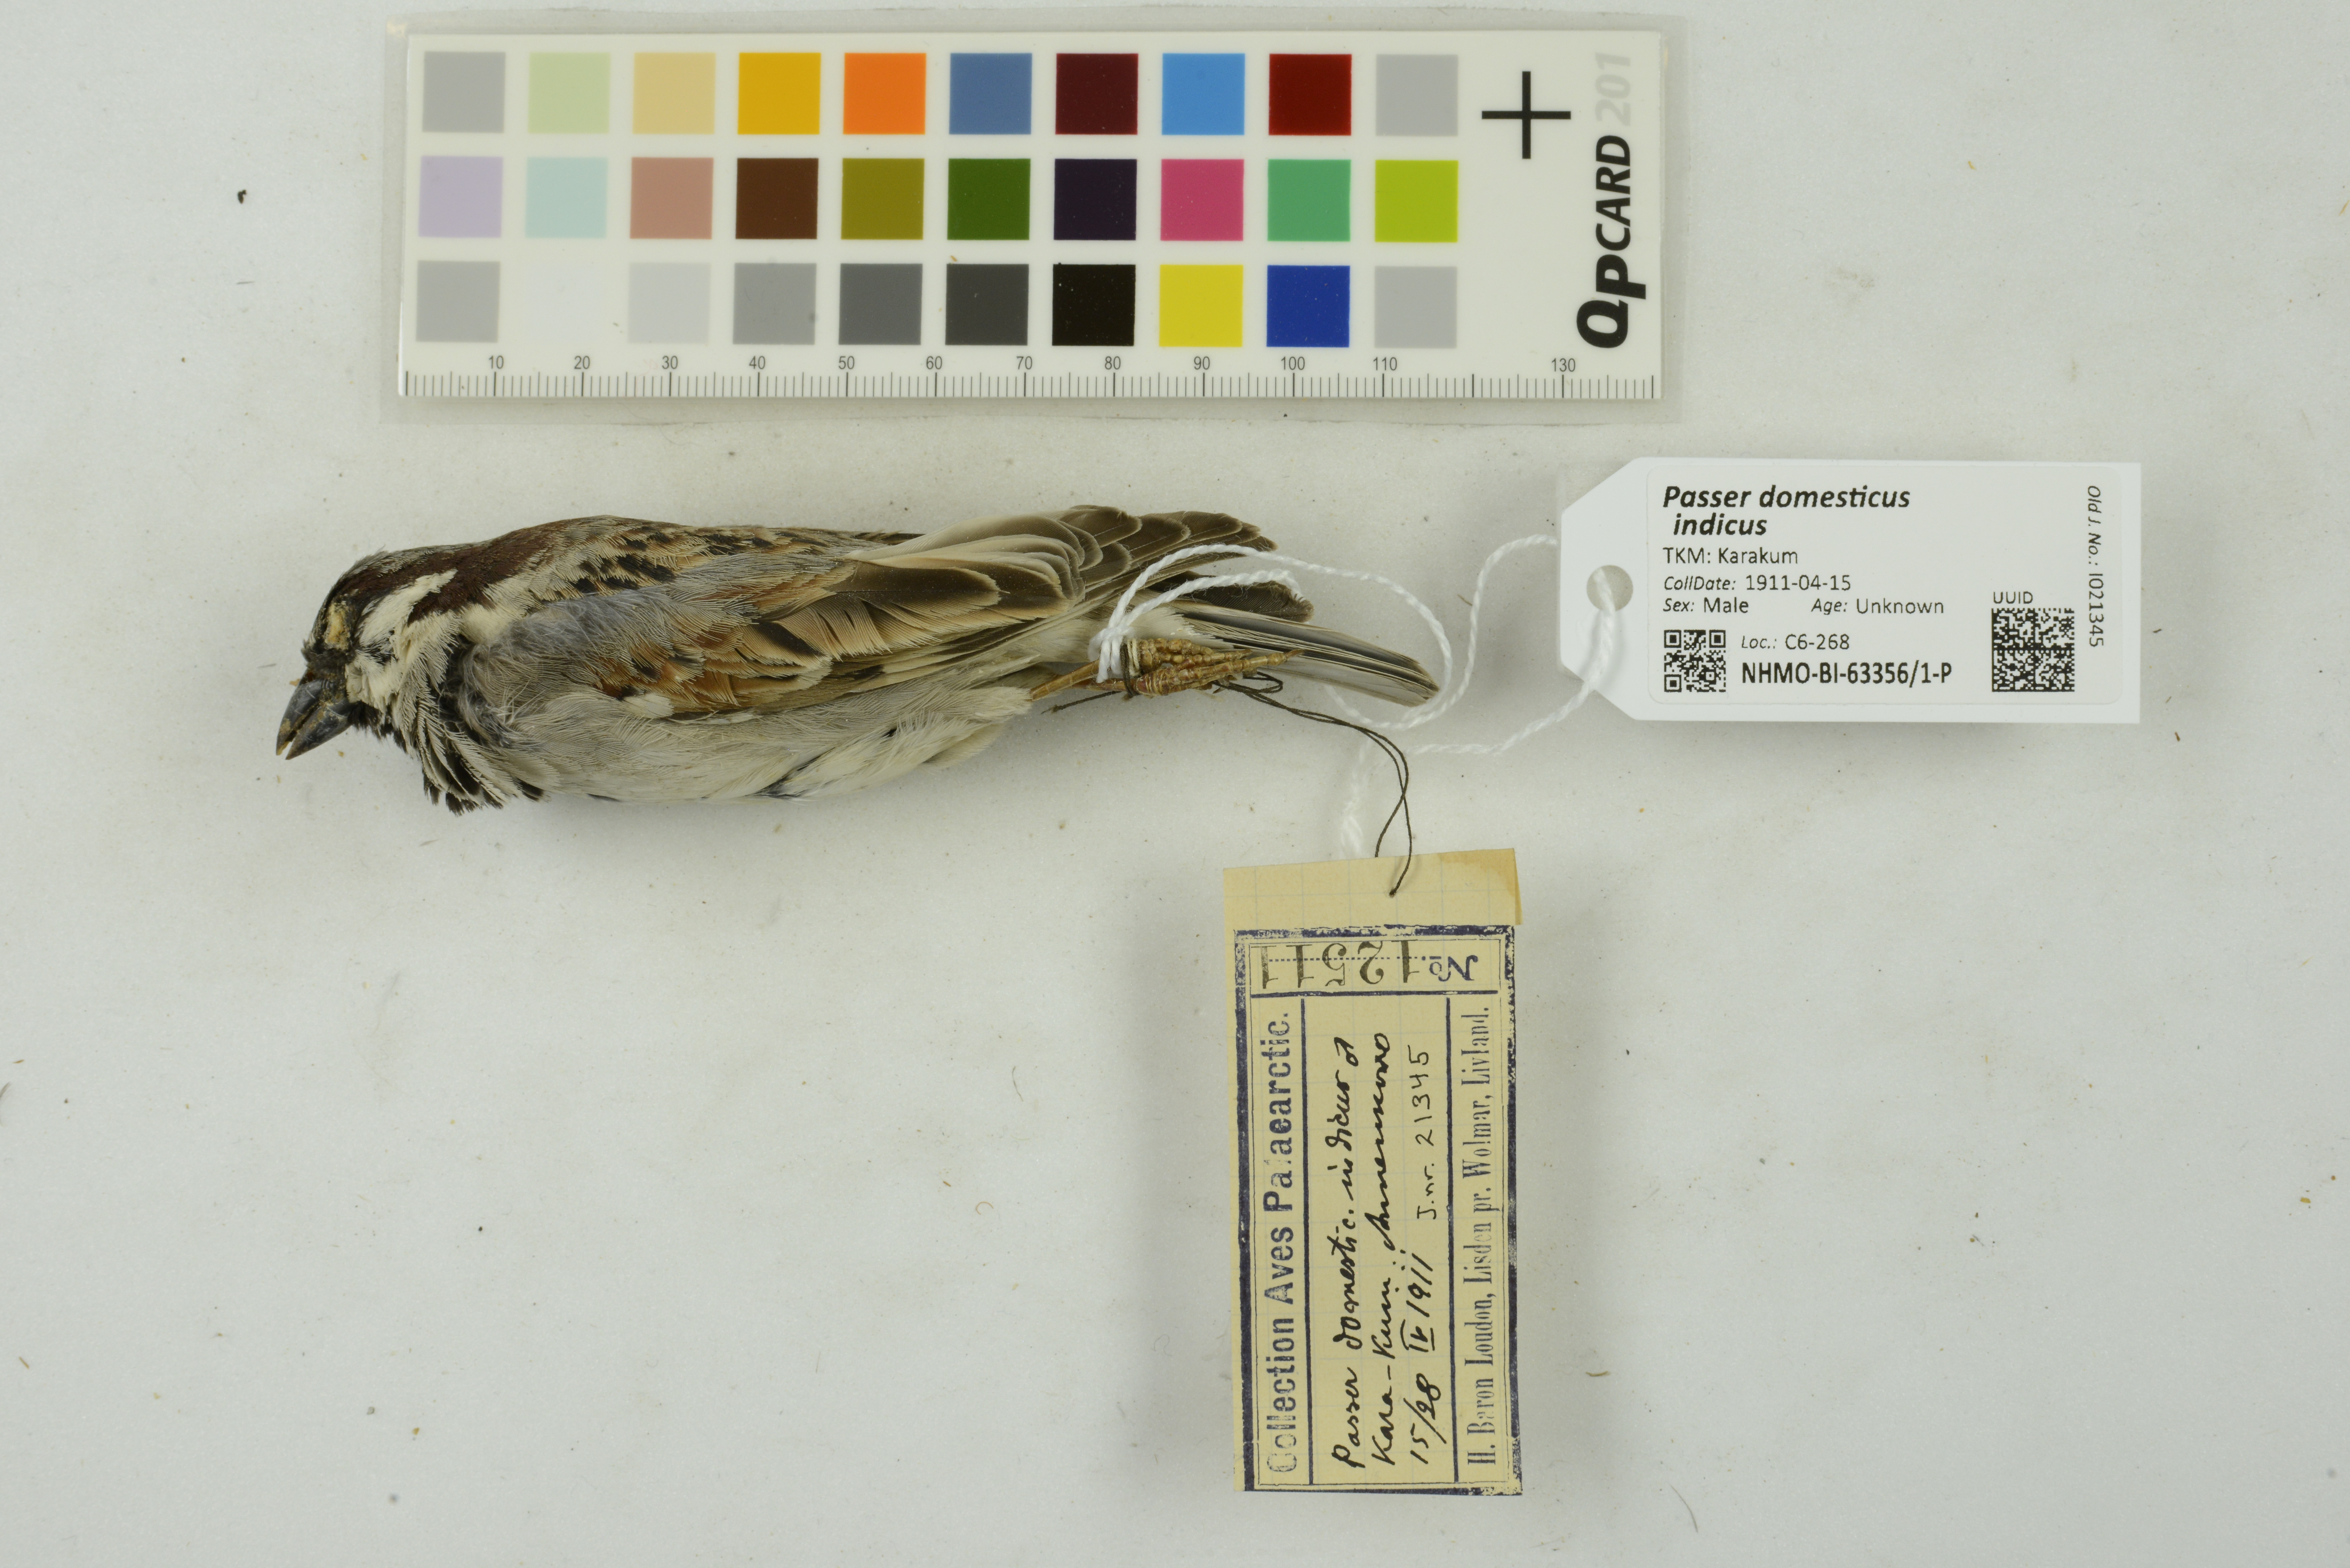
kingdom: Animalia
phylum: Chordata
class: Aves
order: Passeriformes
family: Passeridae
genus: Passer
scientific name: Passer domesticus
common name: House sparrow
